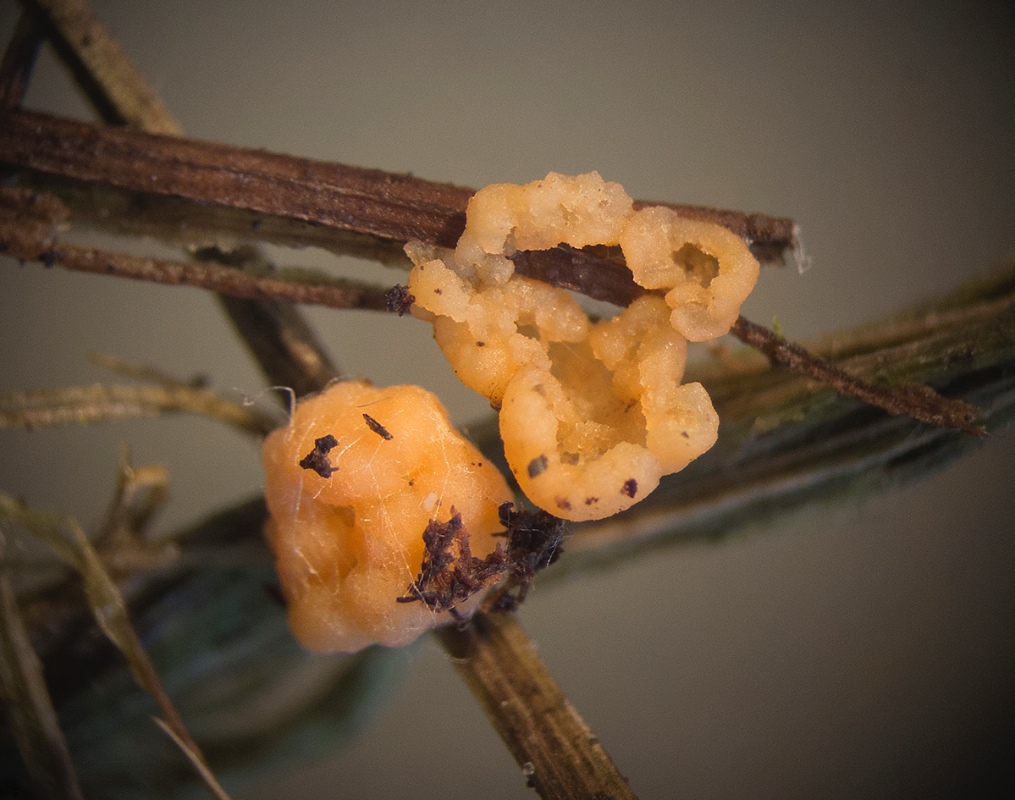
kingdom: Fungi
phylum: Basidiomycota
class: Tremellomycetes
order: Tremellales
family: Rhynchogastremaceae
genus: Tetragoniomyces
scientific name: Tetragoniomyces uliginosus
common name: sklerotie-snyltehjerne
